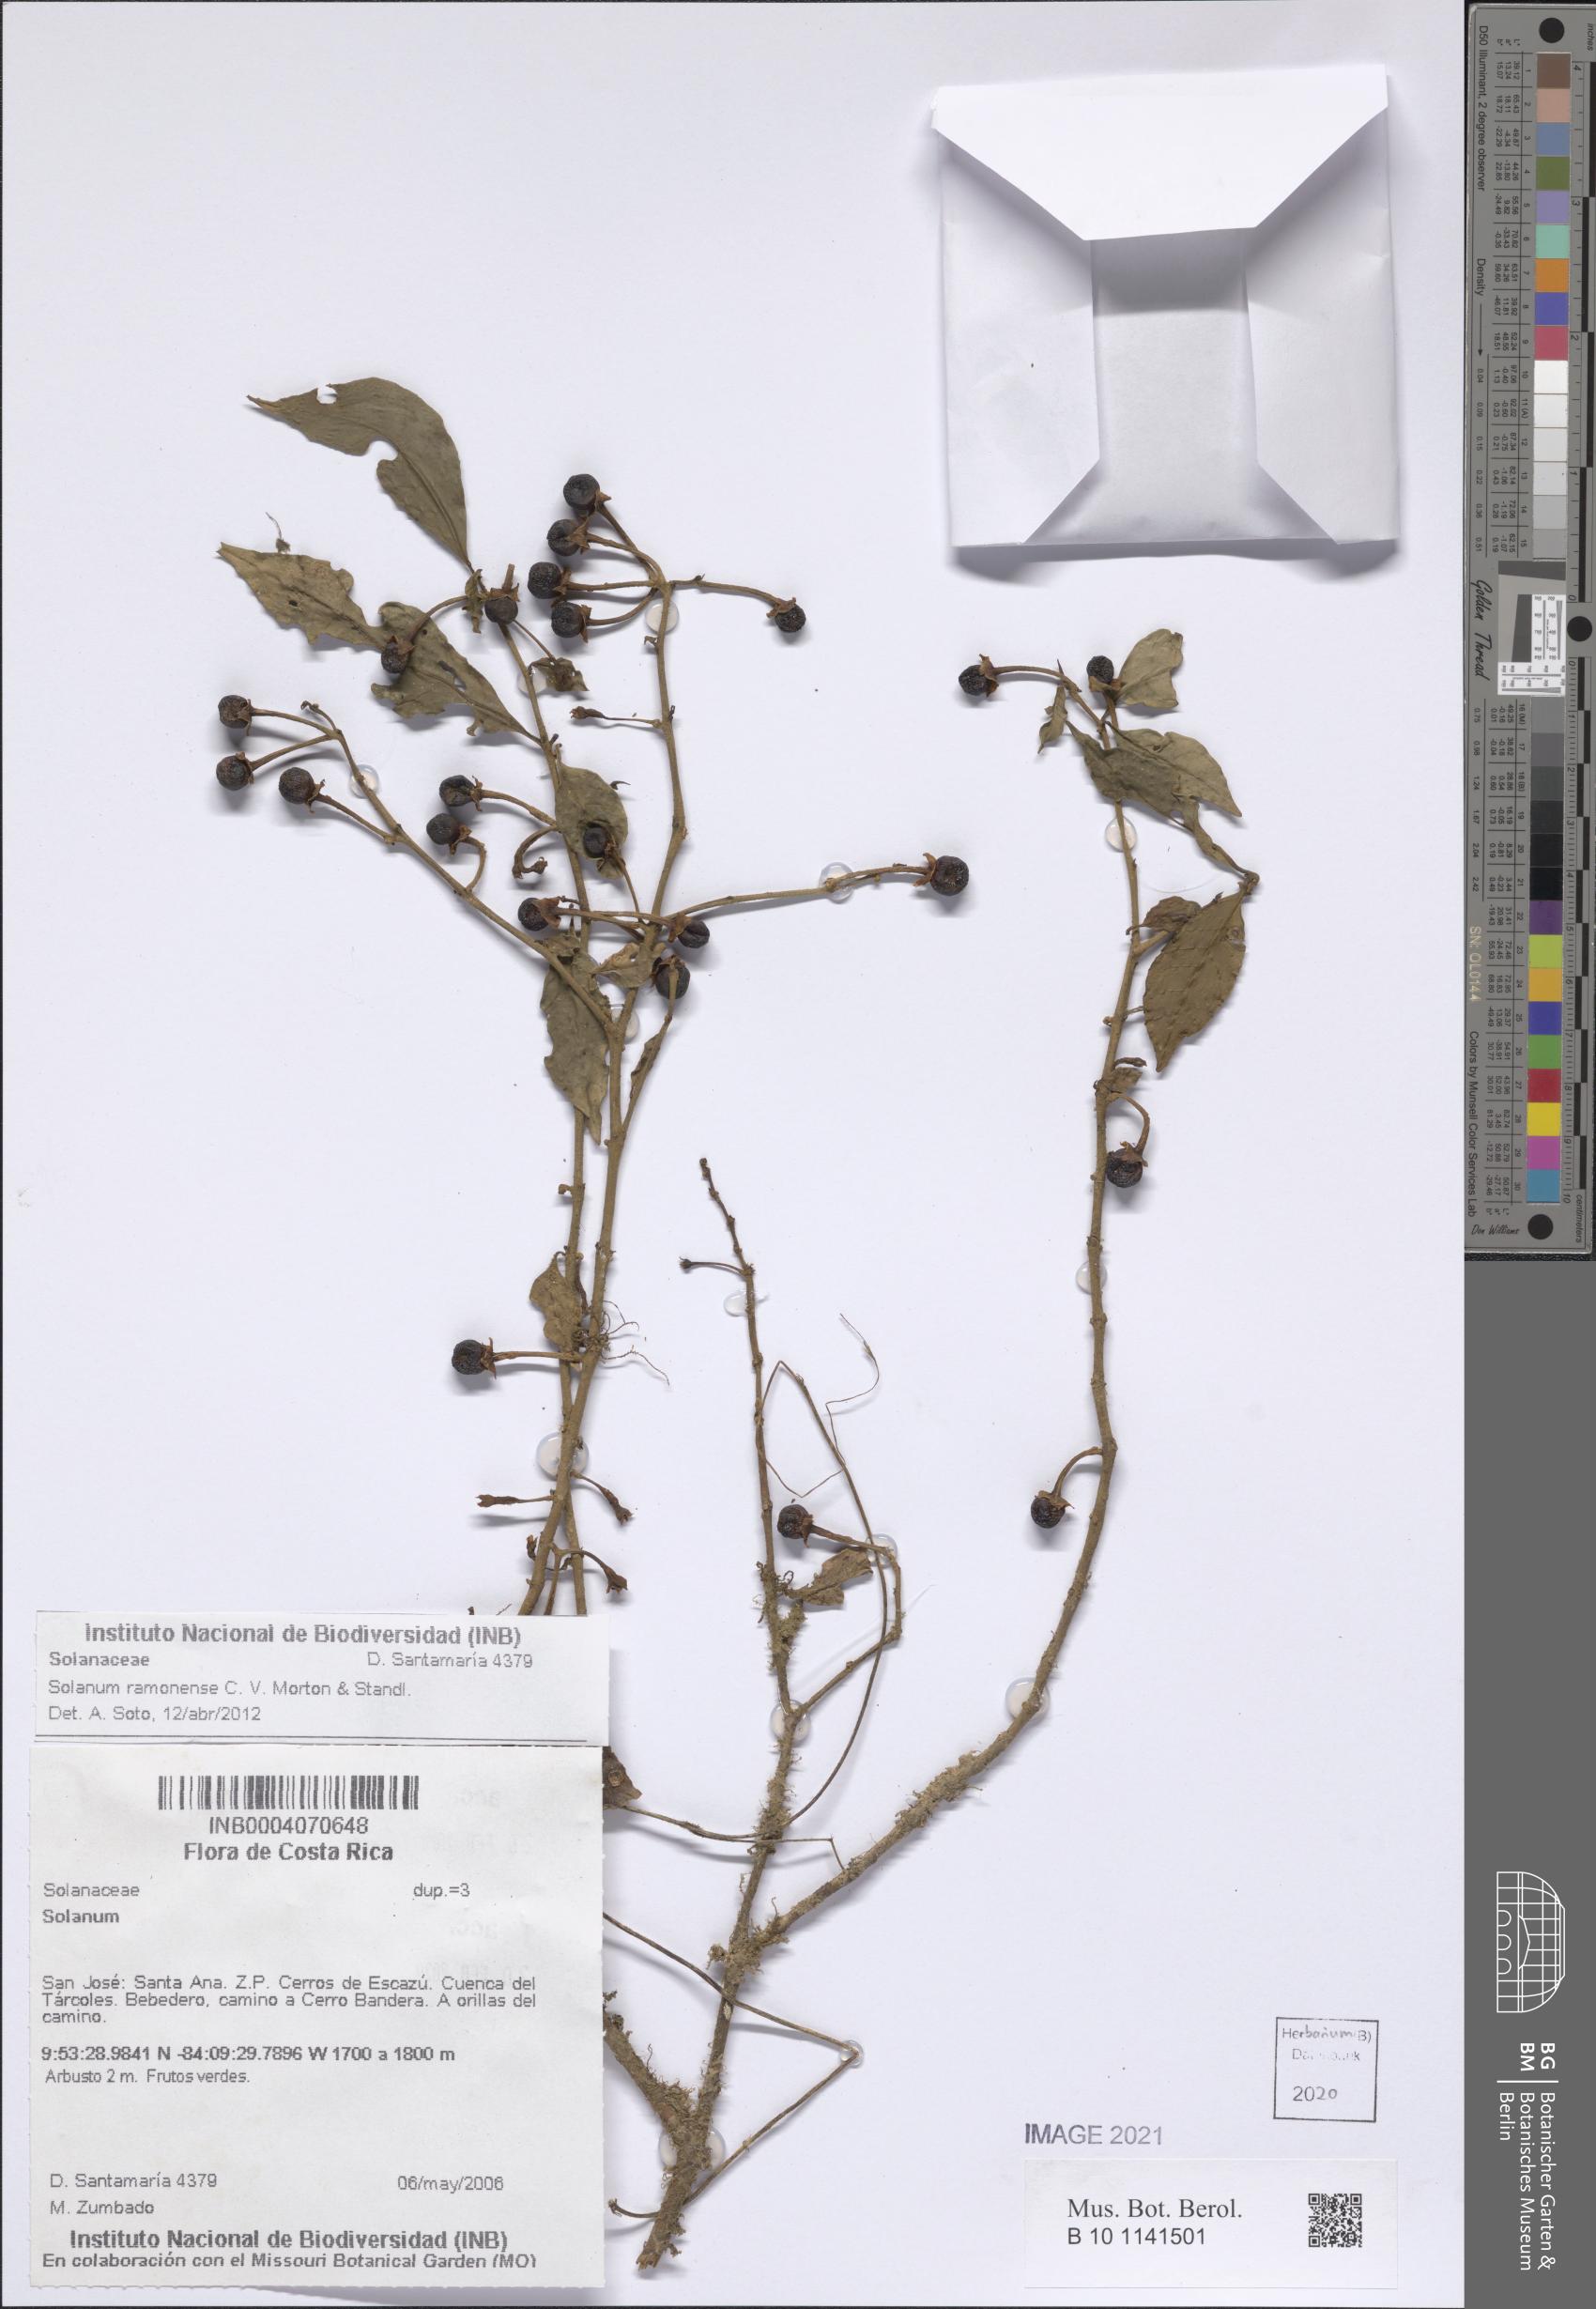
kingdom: Plantae
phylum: Tracheophyta
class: Magnoliopsida
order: Solanales
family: Solanaceae
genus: Solanum
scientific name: Solanum ramonense
